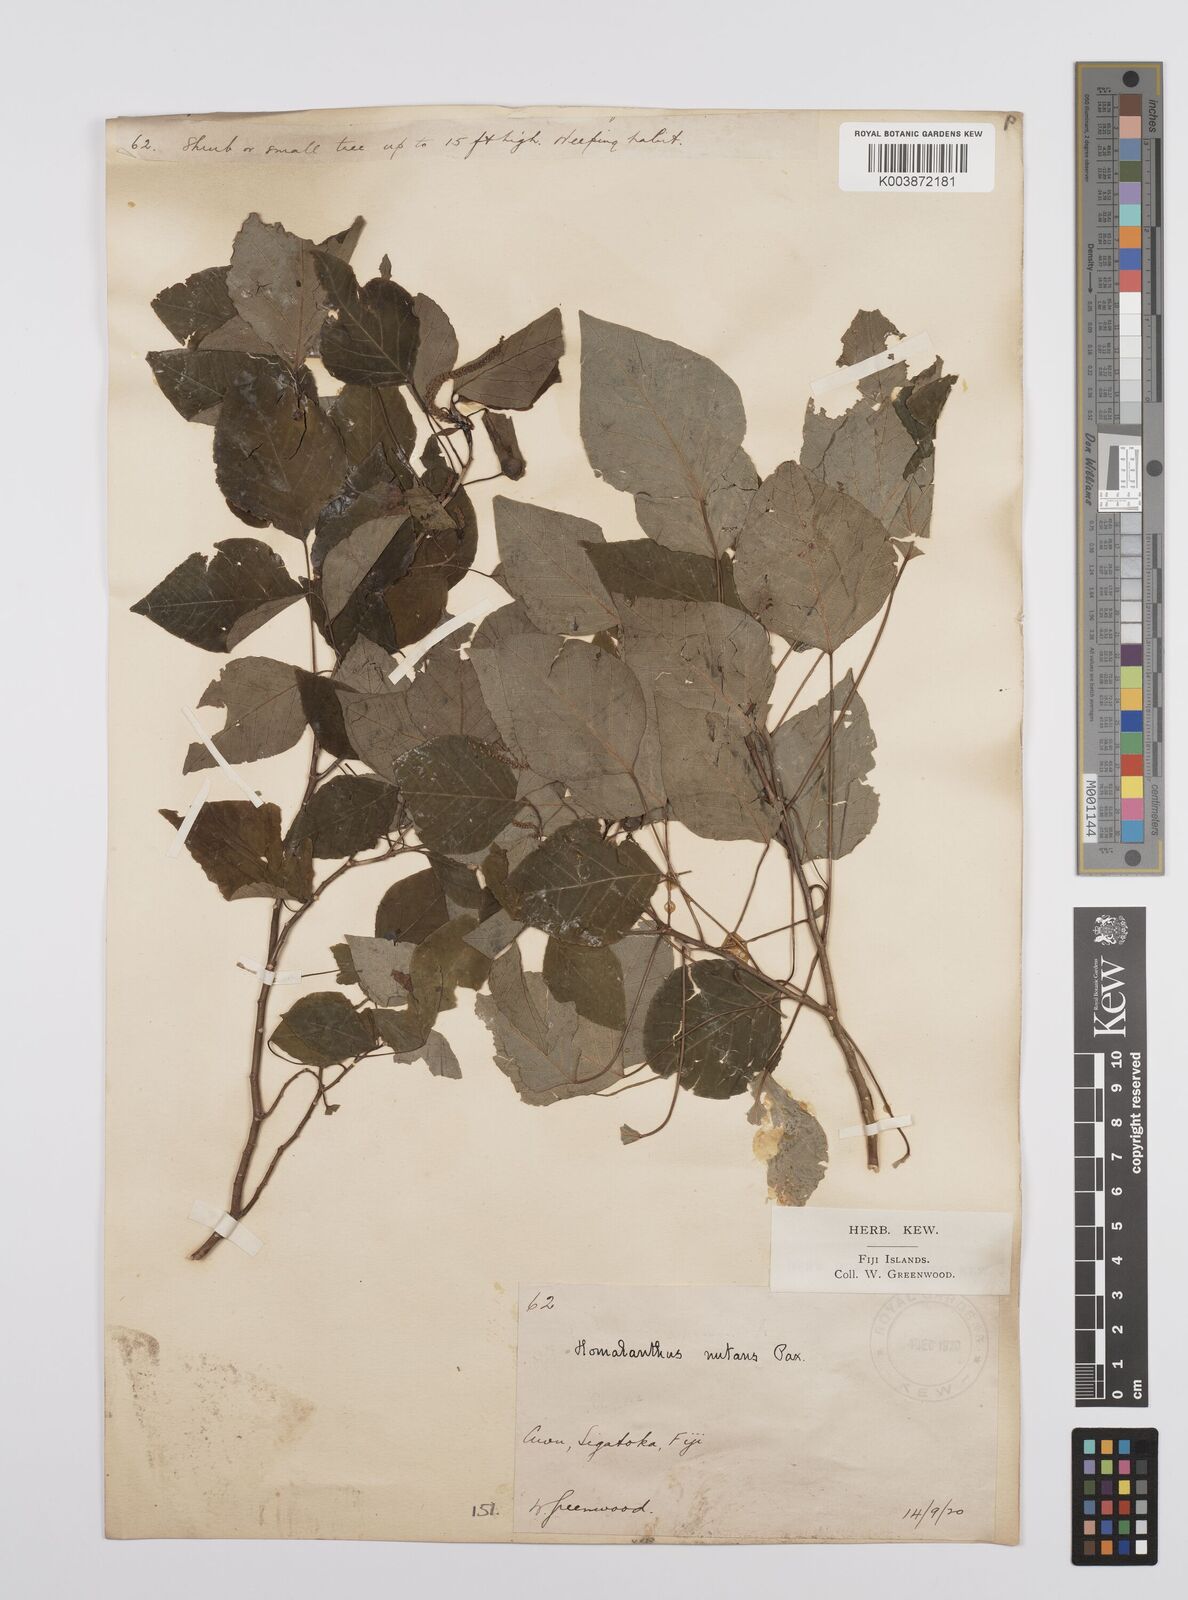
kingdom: Plantae
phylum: Tracheophyta
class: Magnoliopsida
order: Malpighiales
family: Euphorbiaceae
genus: Homalanthus
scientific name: Homalanthus nutans
